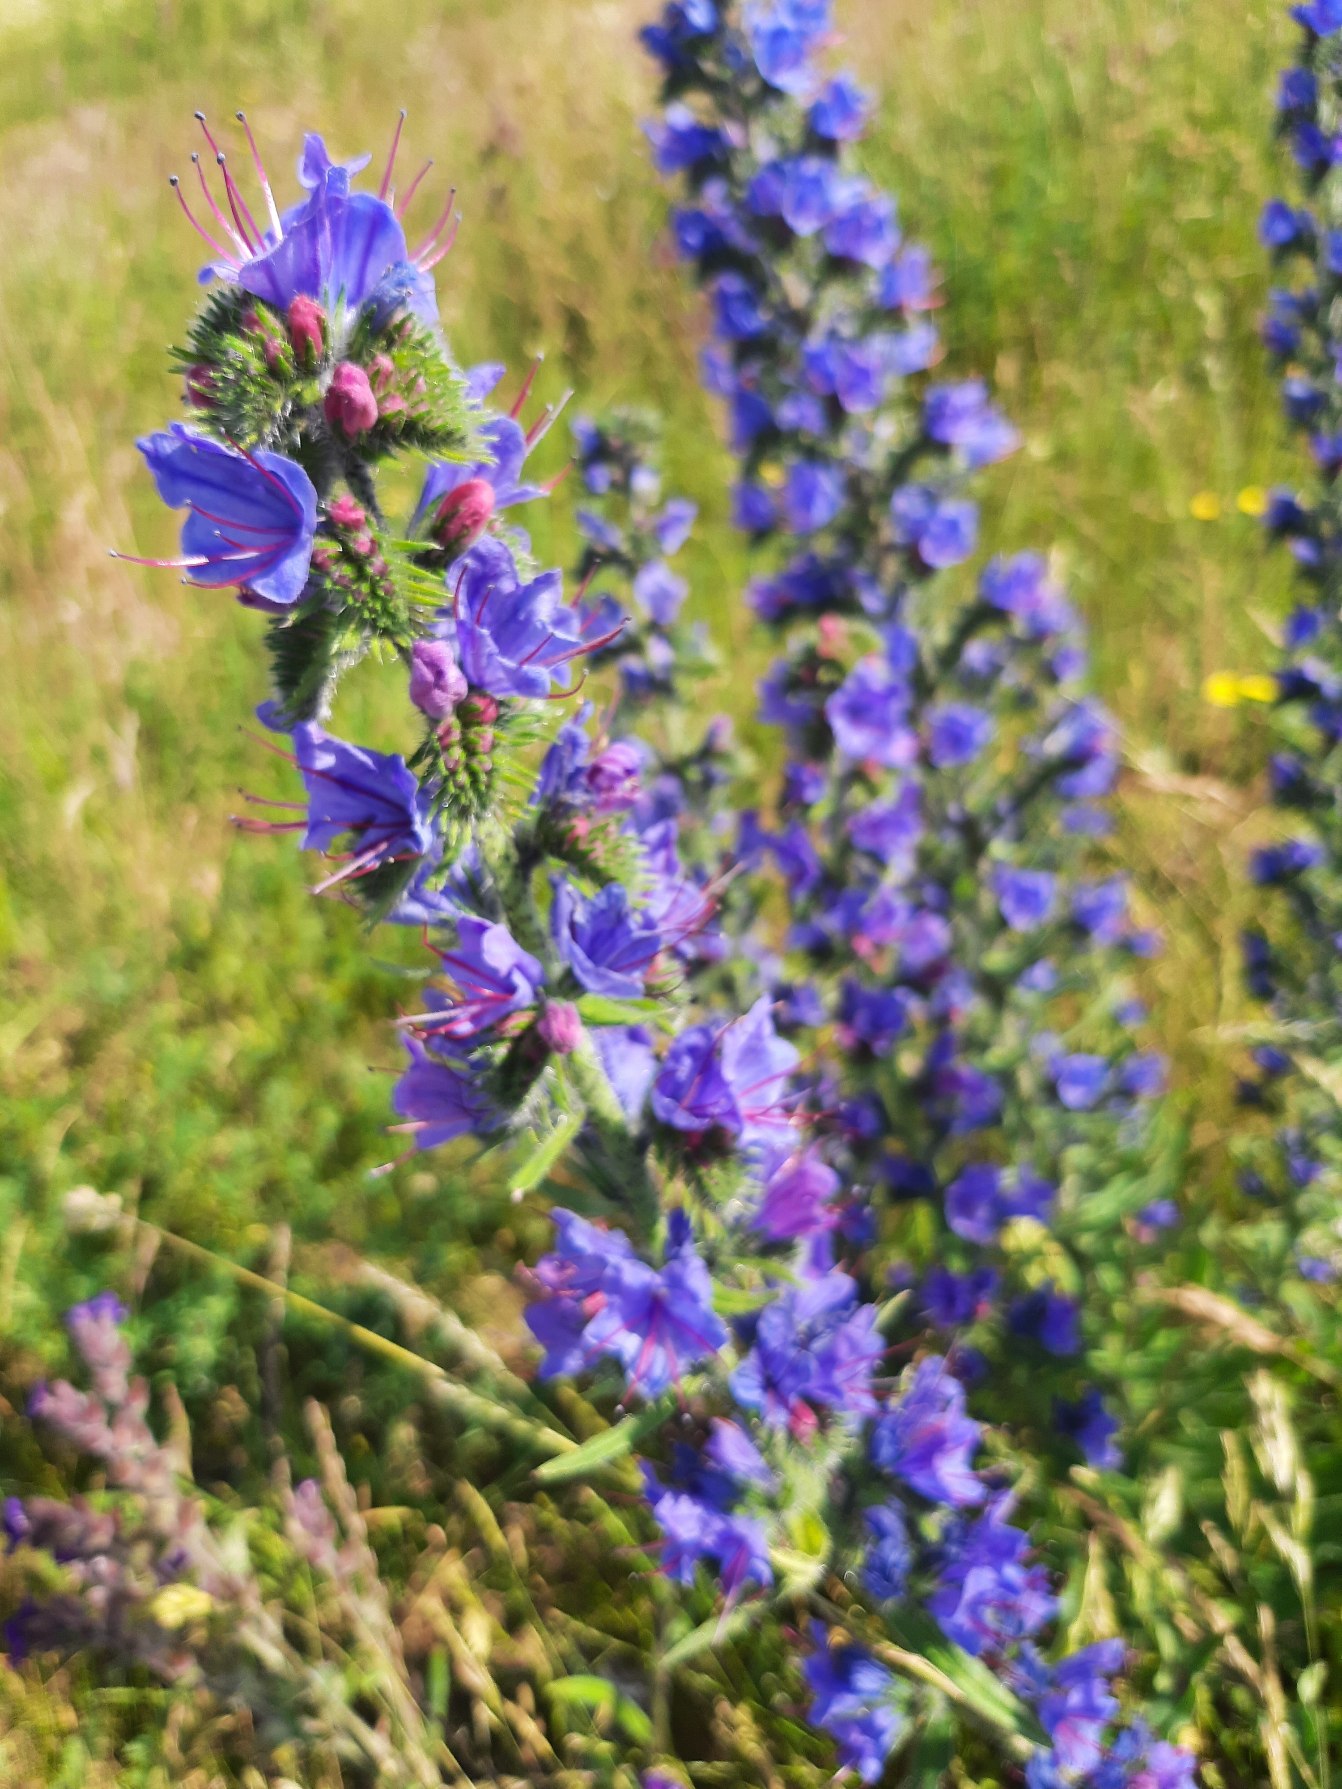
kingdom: Plantae
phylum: Tracheophyta
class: Magnoliopsida
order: Boraginales
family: Boraginaceae
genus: Echium
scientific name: Echium vulgare
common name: Slangehoved
